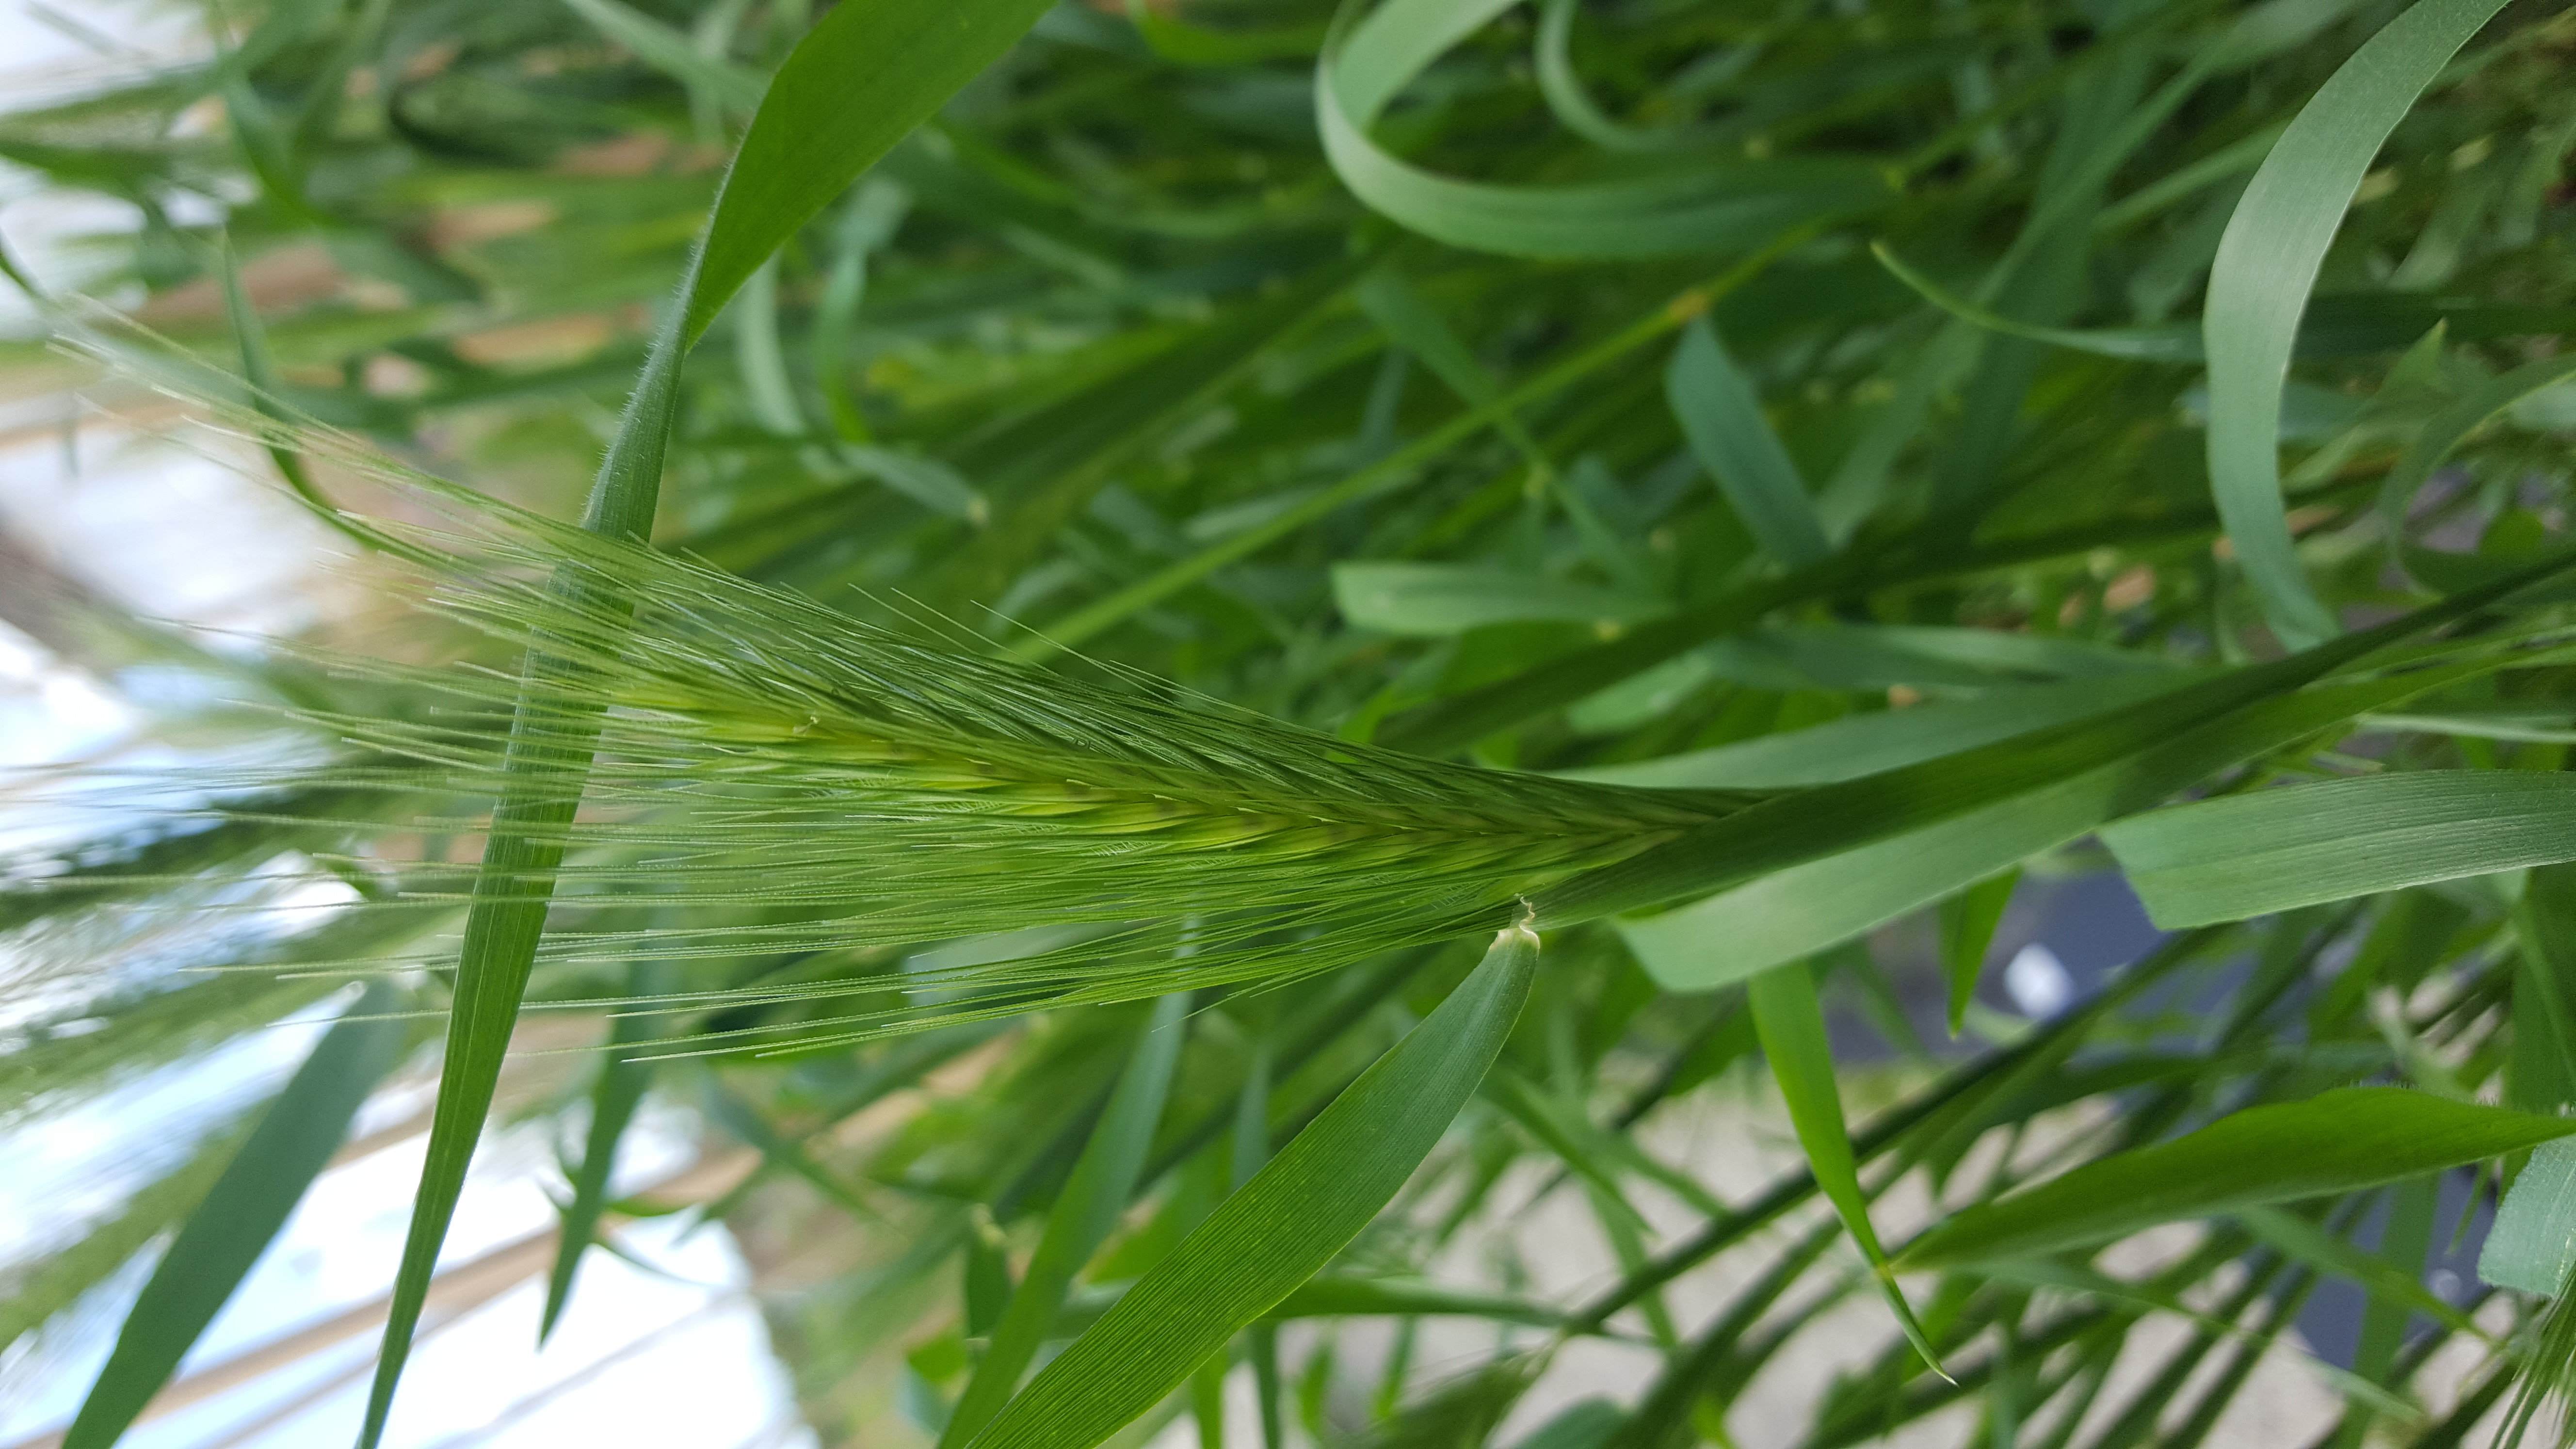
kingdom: Plantae
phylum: Tracheophyta
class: Liliopsida
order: Poales
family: Poaceae
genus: Hordeum
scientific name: Hordeum murinum
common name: Wall barley
